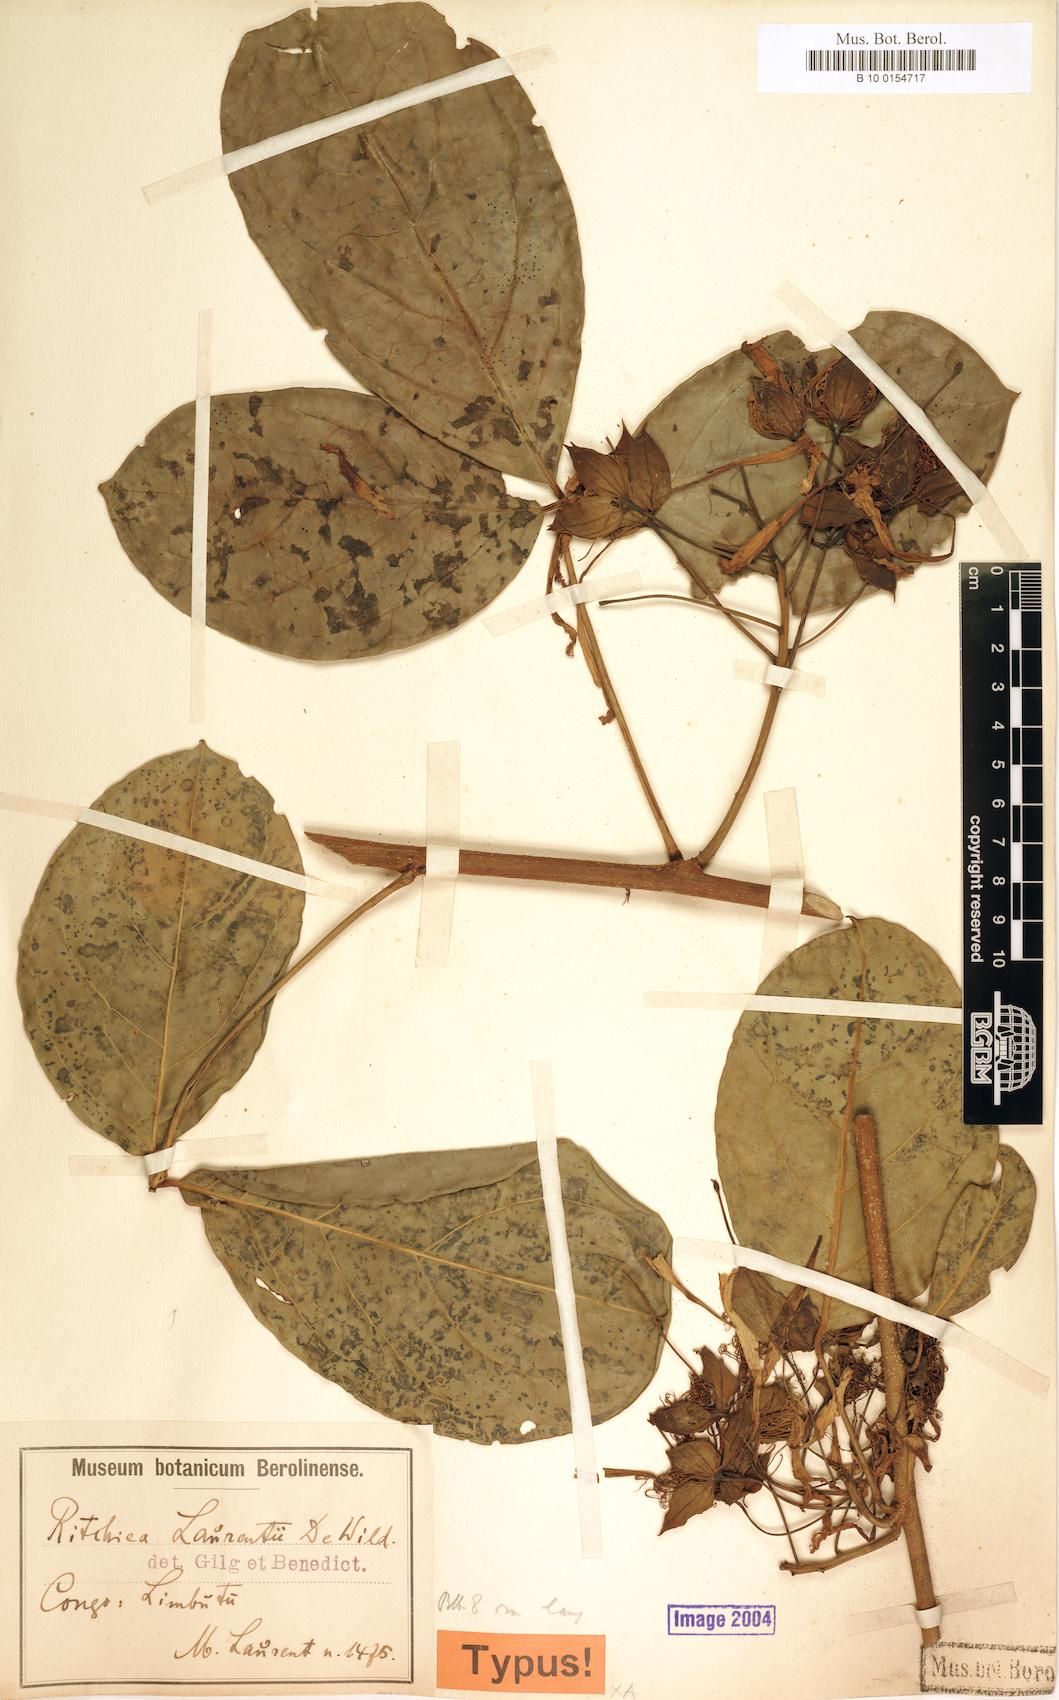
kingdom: Plantae
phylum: Tracheophyta
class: Magnoliopsida
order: Brassicales
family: Capparaceae
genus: Ritchiea
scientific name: Ritchiea capparoides
